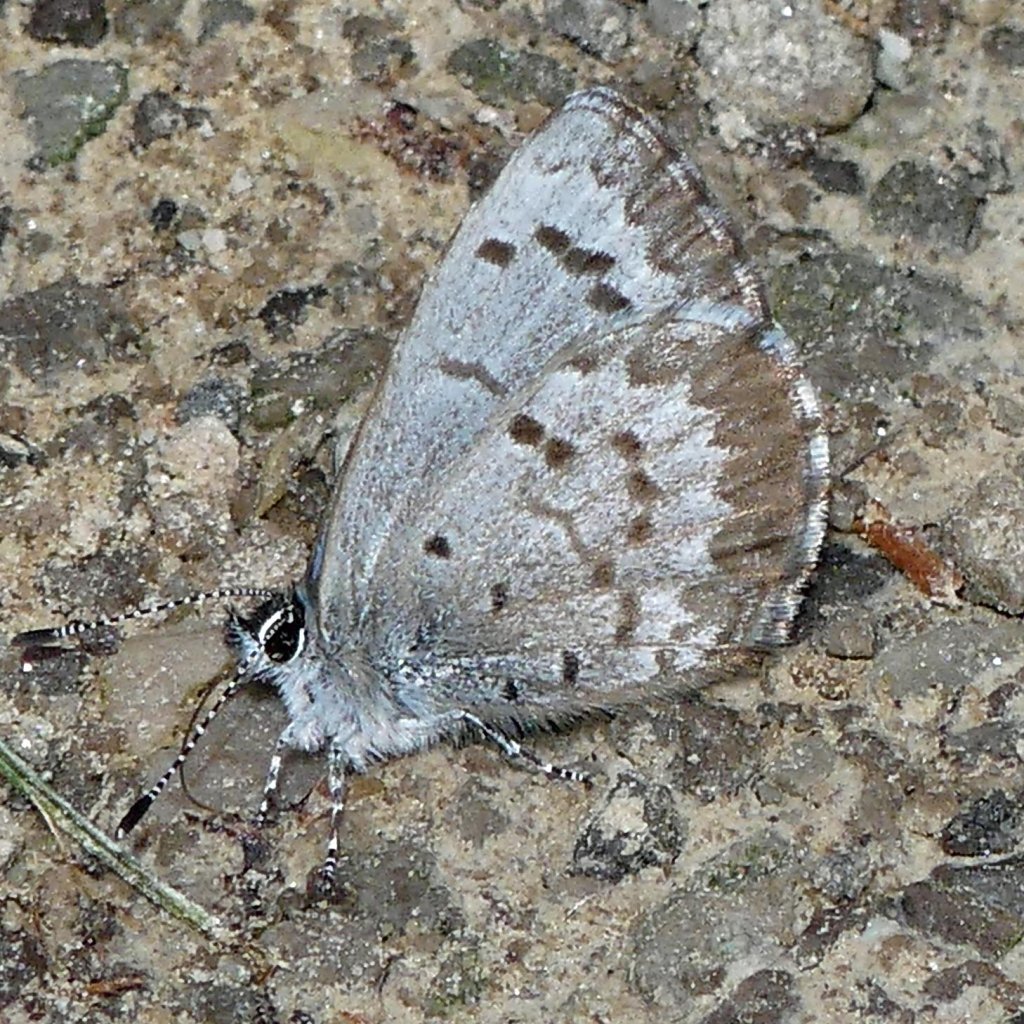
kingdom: Animalia
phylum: Arthropoda
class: Insecta
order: Lepidoptera
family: Lycaenidae
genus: Celastrina
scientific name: Celastrina
